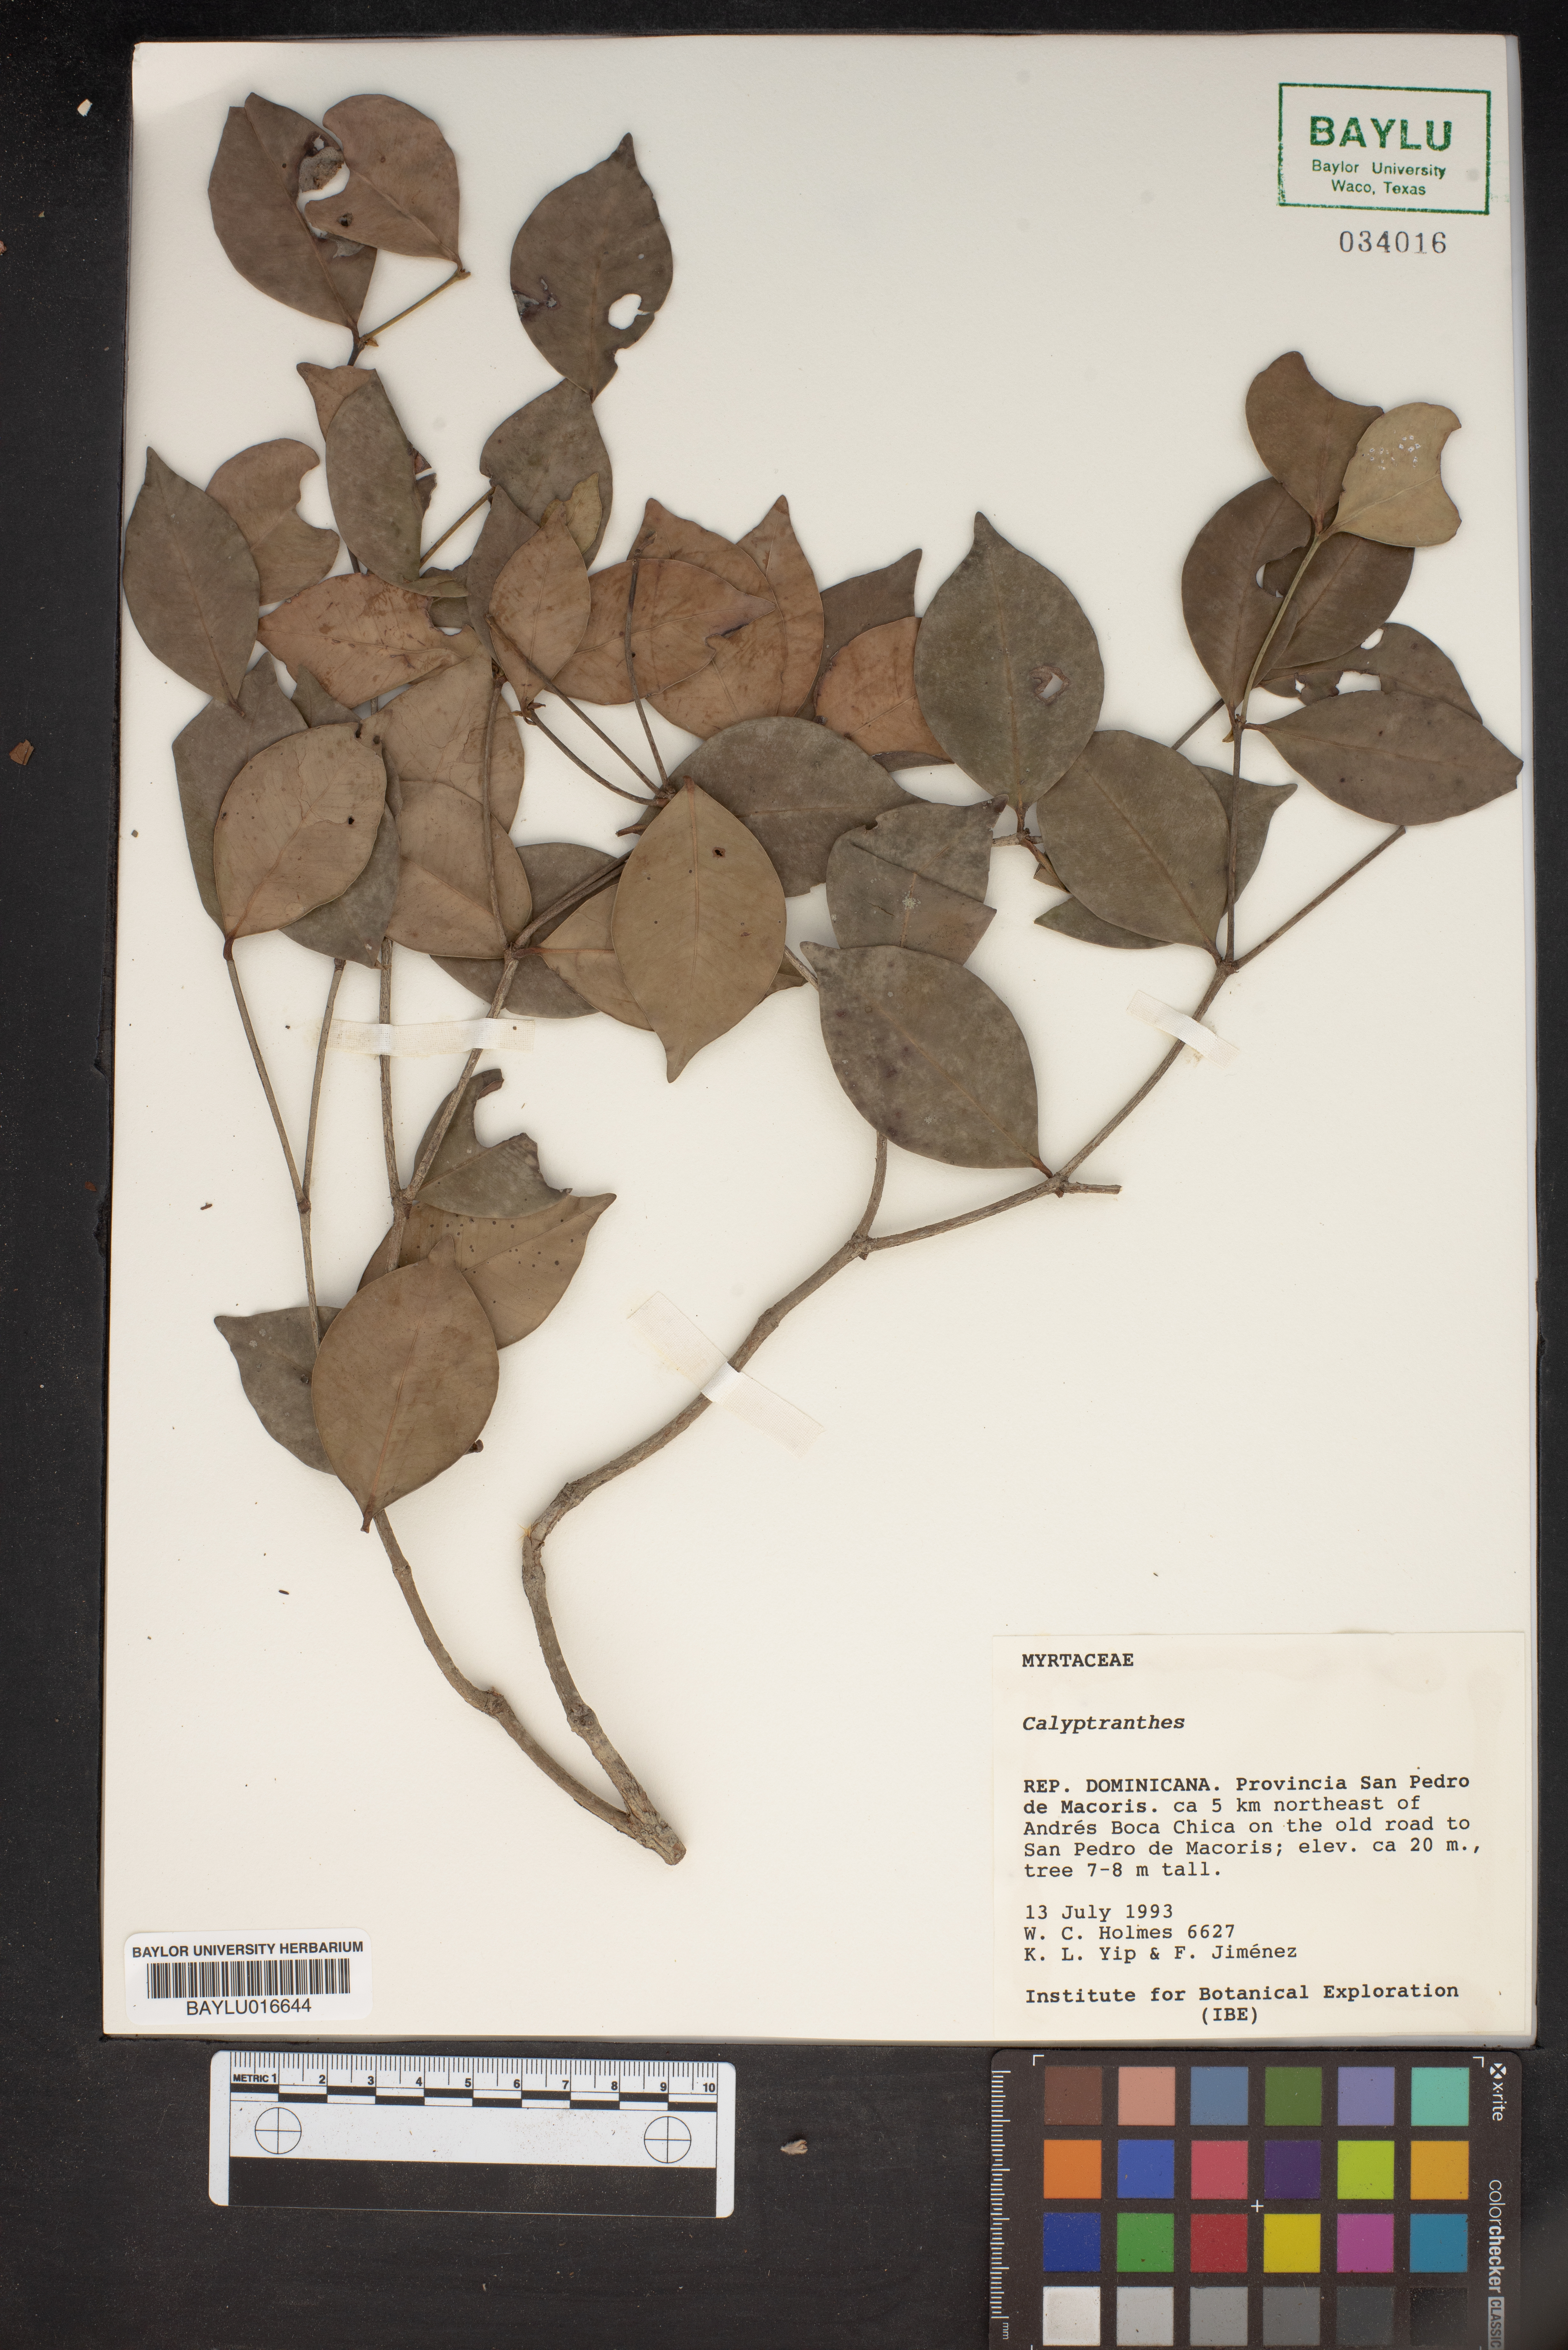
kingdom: Plantae
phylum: Tracheophyta
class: Magnoliopsida
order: Myrtales
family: Myrtaceae
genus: Calyptranthes
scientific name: Calyptranthes
